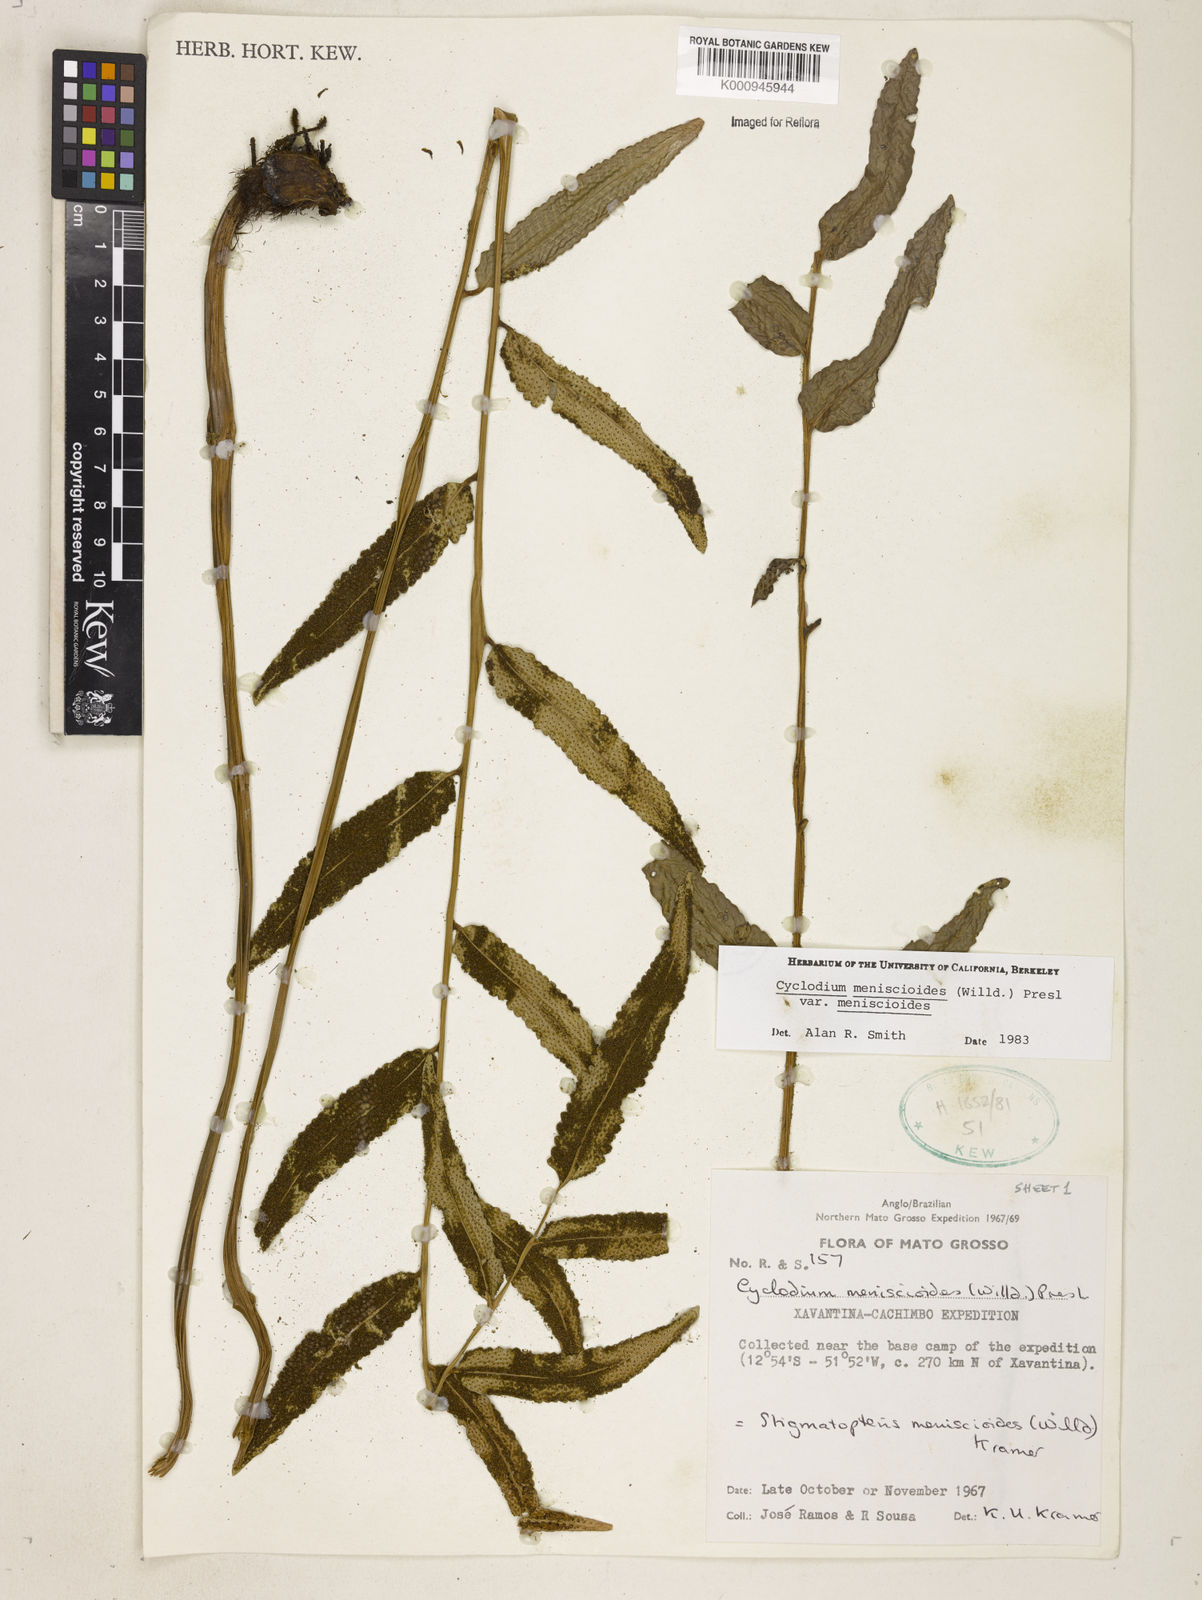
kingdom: Plantae
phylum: Tracheophyta
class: Polypodiopsida
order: Polypodiales
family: Dryopteridaceae
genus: Cyclodium
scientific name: Cyclodium meniscioides
